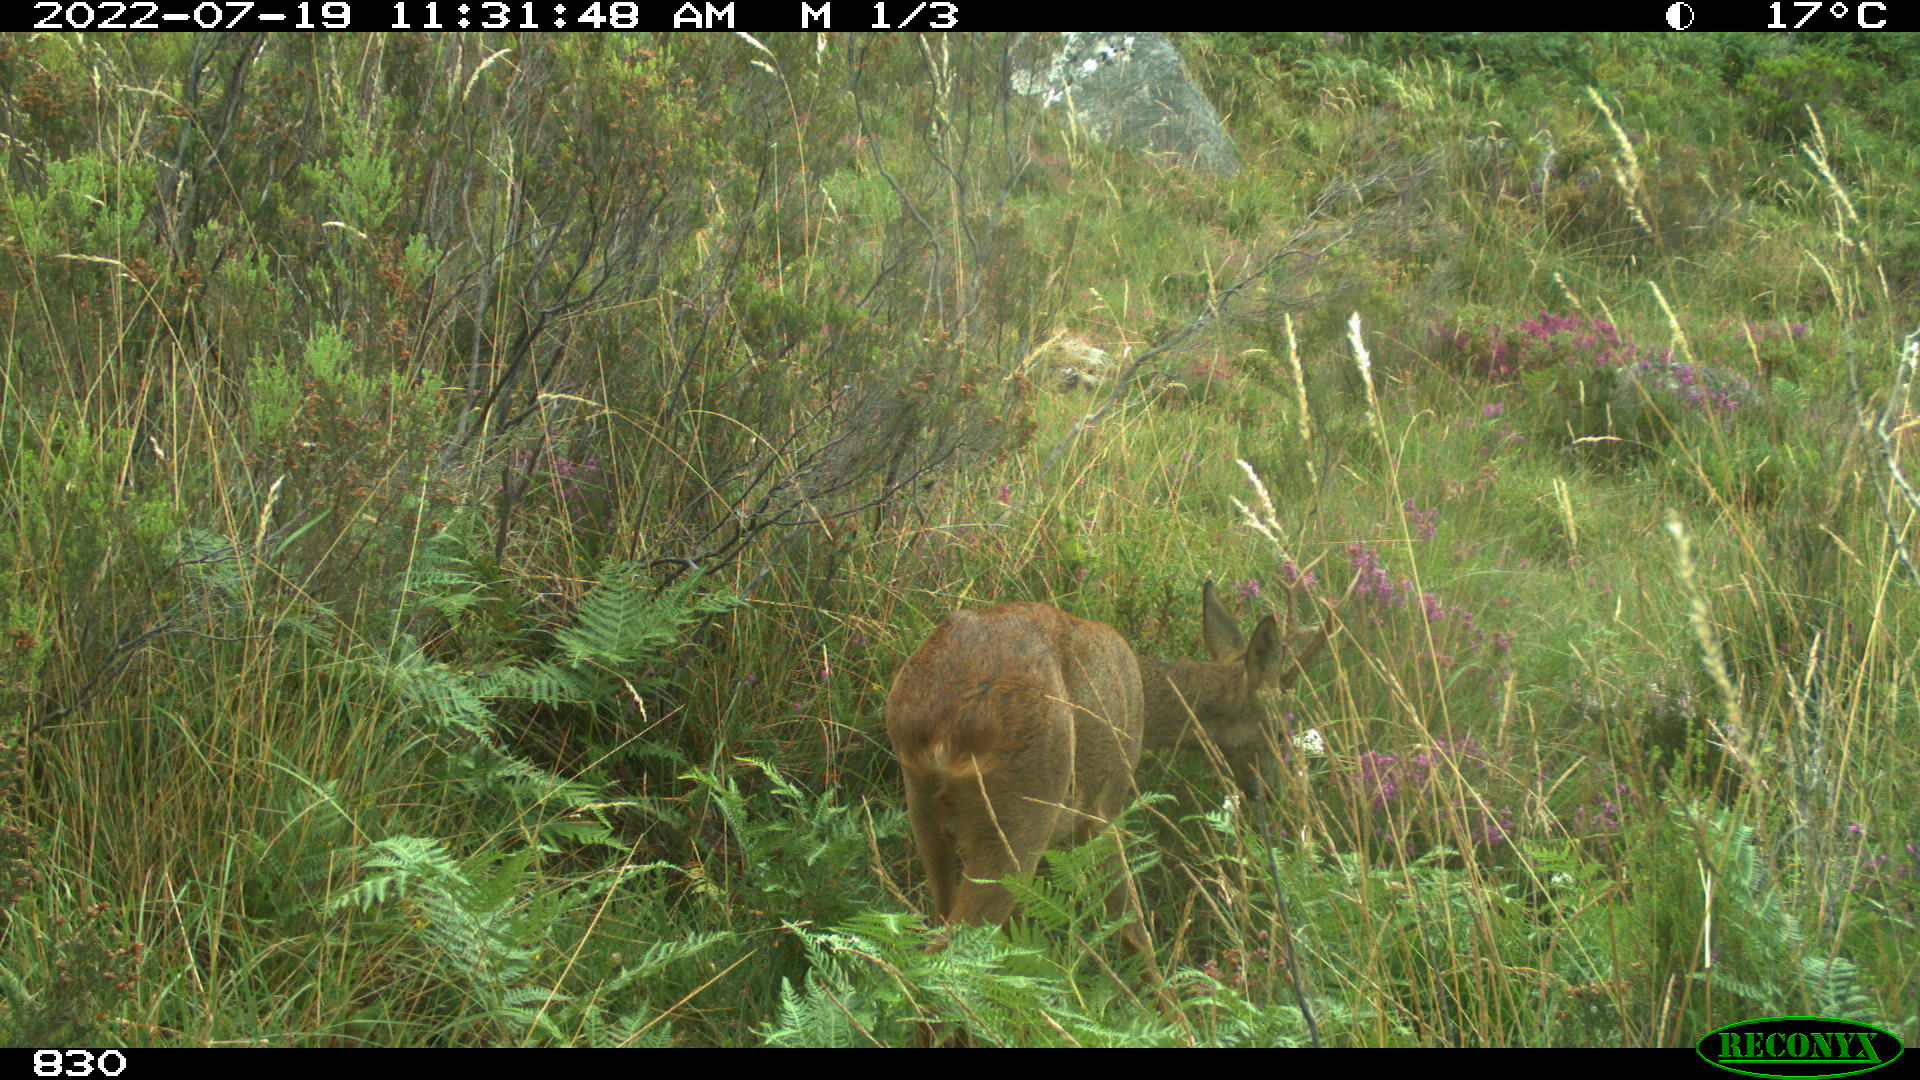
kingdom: Animalia
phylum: Chordata
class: Mammalia
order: Artiodactyla
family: Cervidae
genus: Capreolus
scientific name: Capreolus capreolus
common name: Western roe deer
